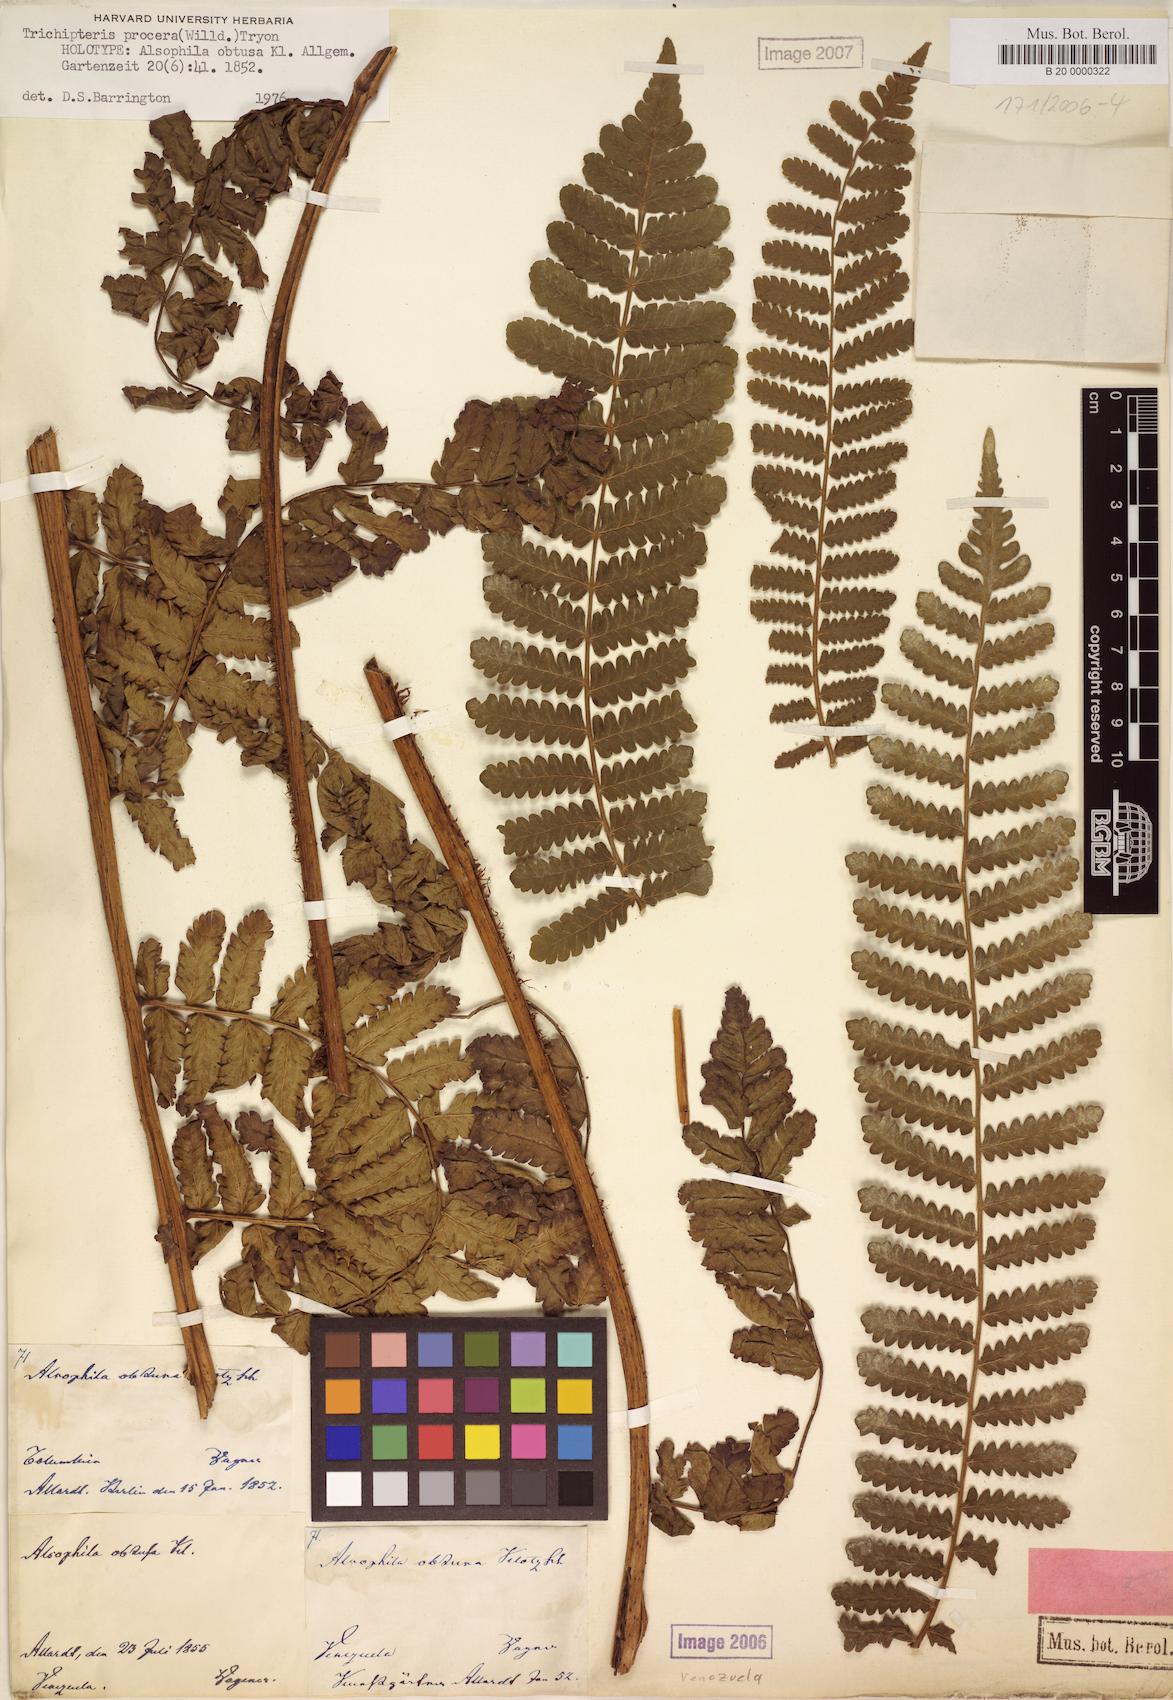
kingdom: Plantae
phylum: Tracheophyta
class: Polypodiopsida
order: Cyatheales
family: Cyatheaceae
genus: Cyathea
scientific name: Cyathea pungens
